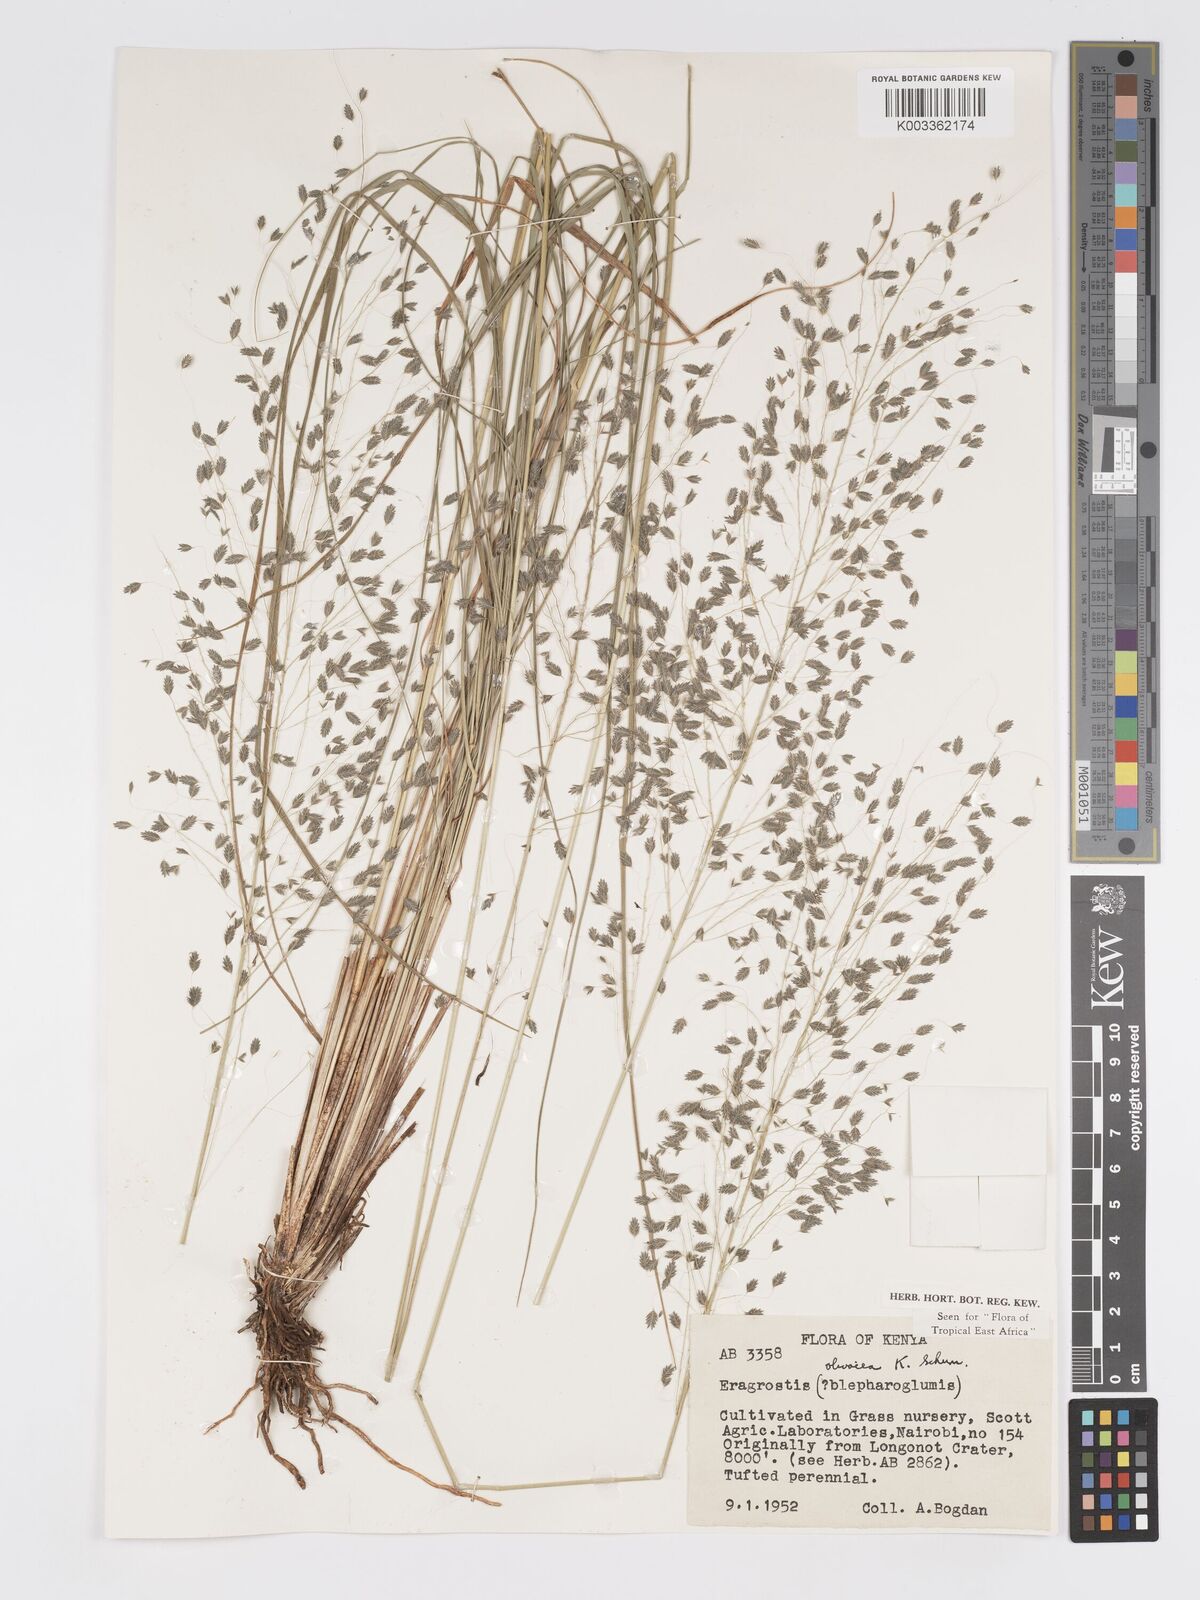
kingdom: Plantae
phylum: Tracheophyta
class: Liliopsida
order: Poales
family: Poaceae
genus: Eragrostis
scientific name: Eragrostis olivacea
